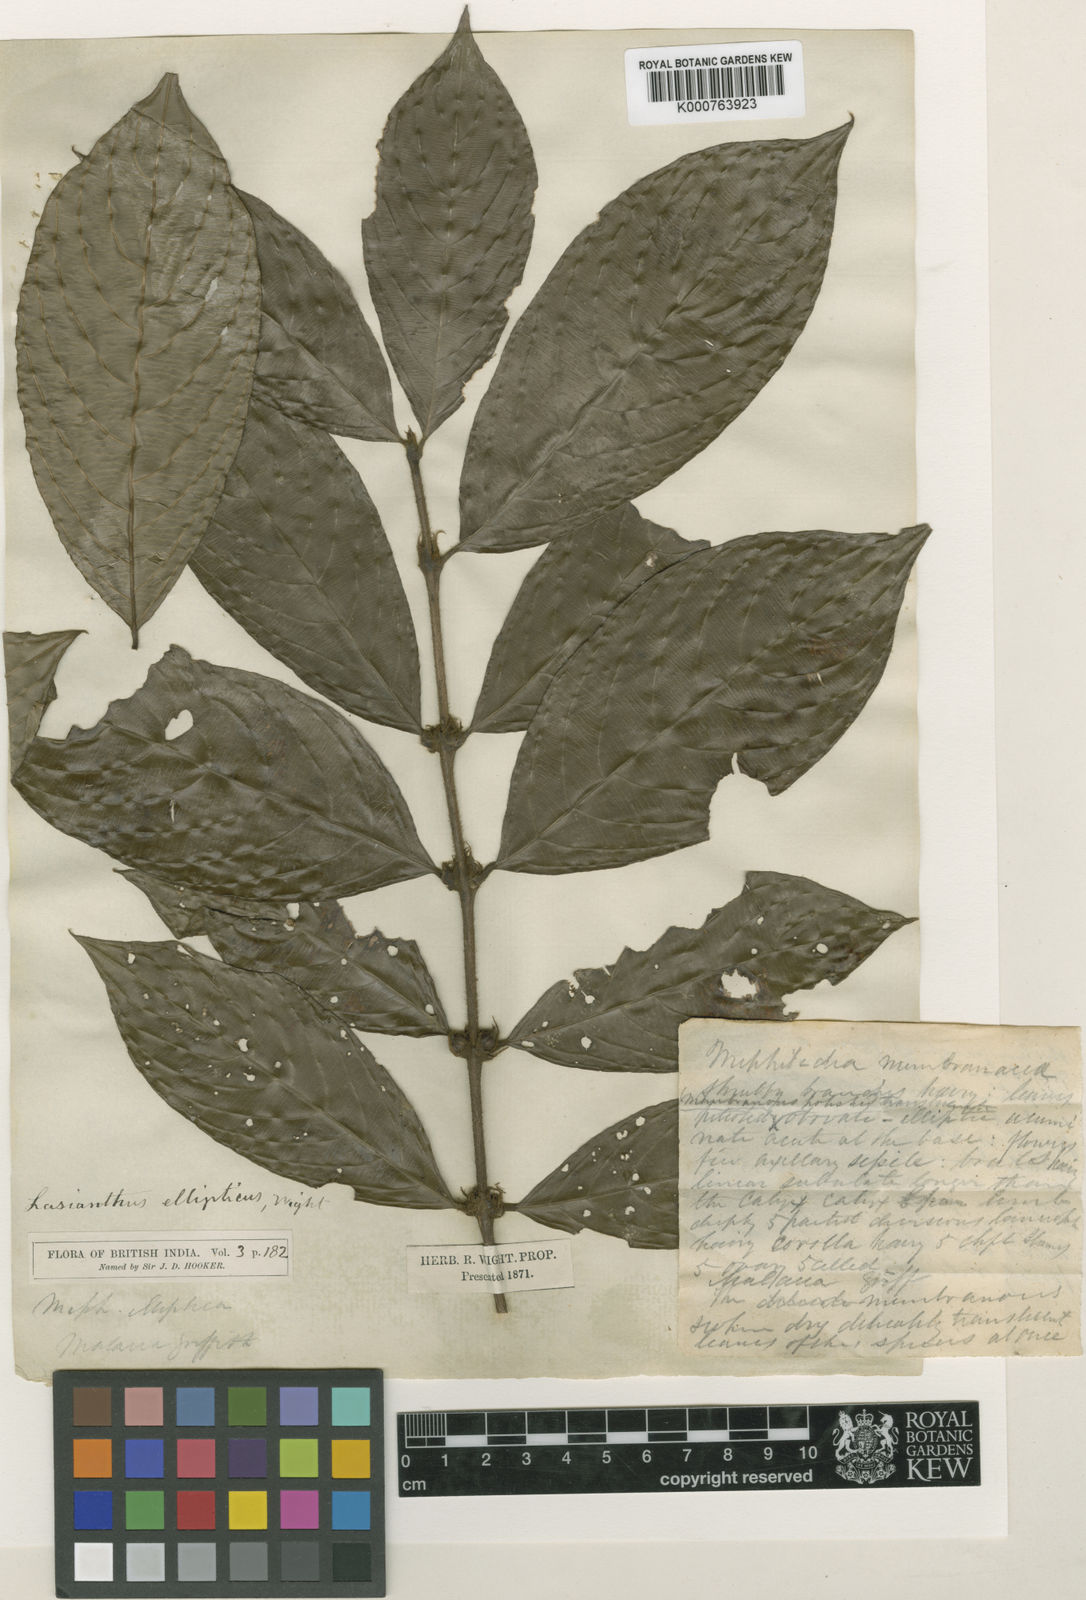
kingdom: Plantae
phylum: Tracheophyta
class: Magnoliopsida
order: Gentianales
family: Rubiaceae
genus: Lasianthus
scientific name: Lasianthus ellipticus
